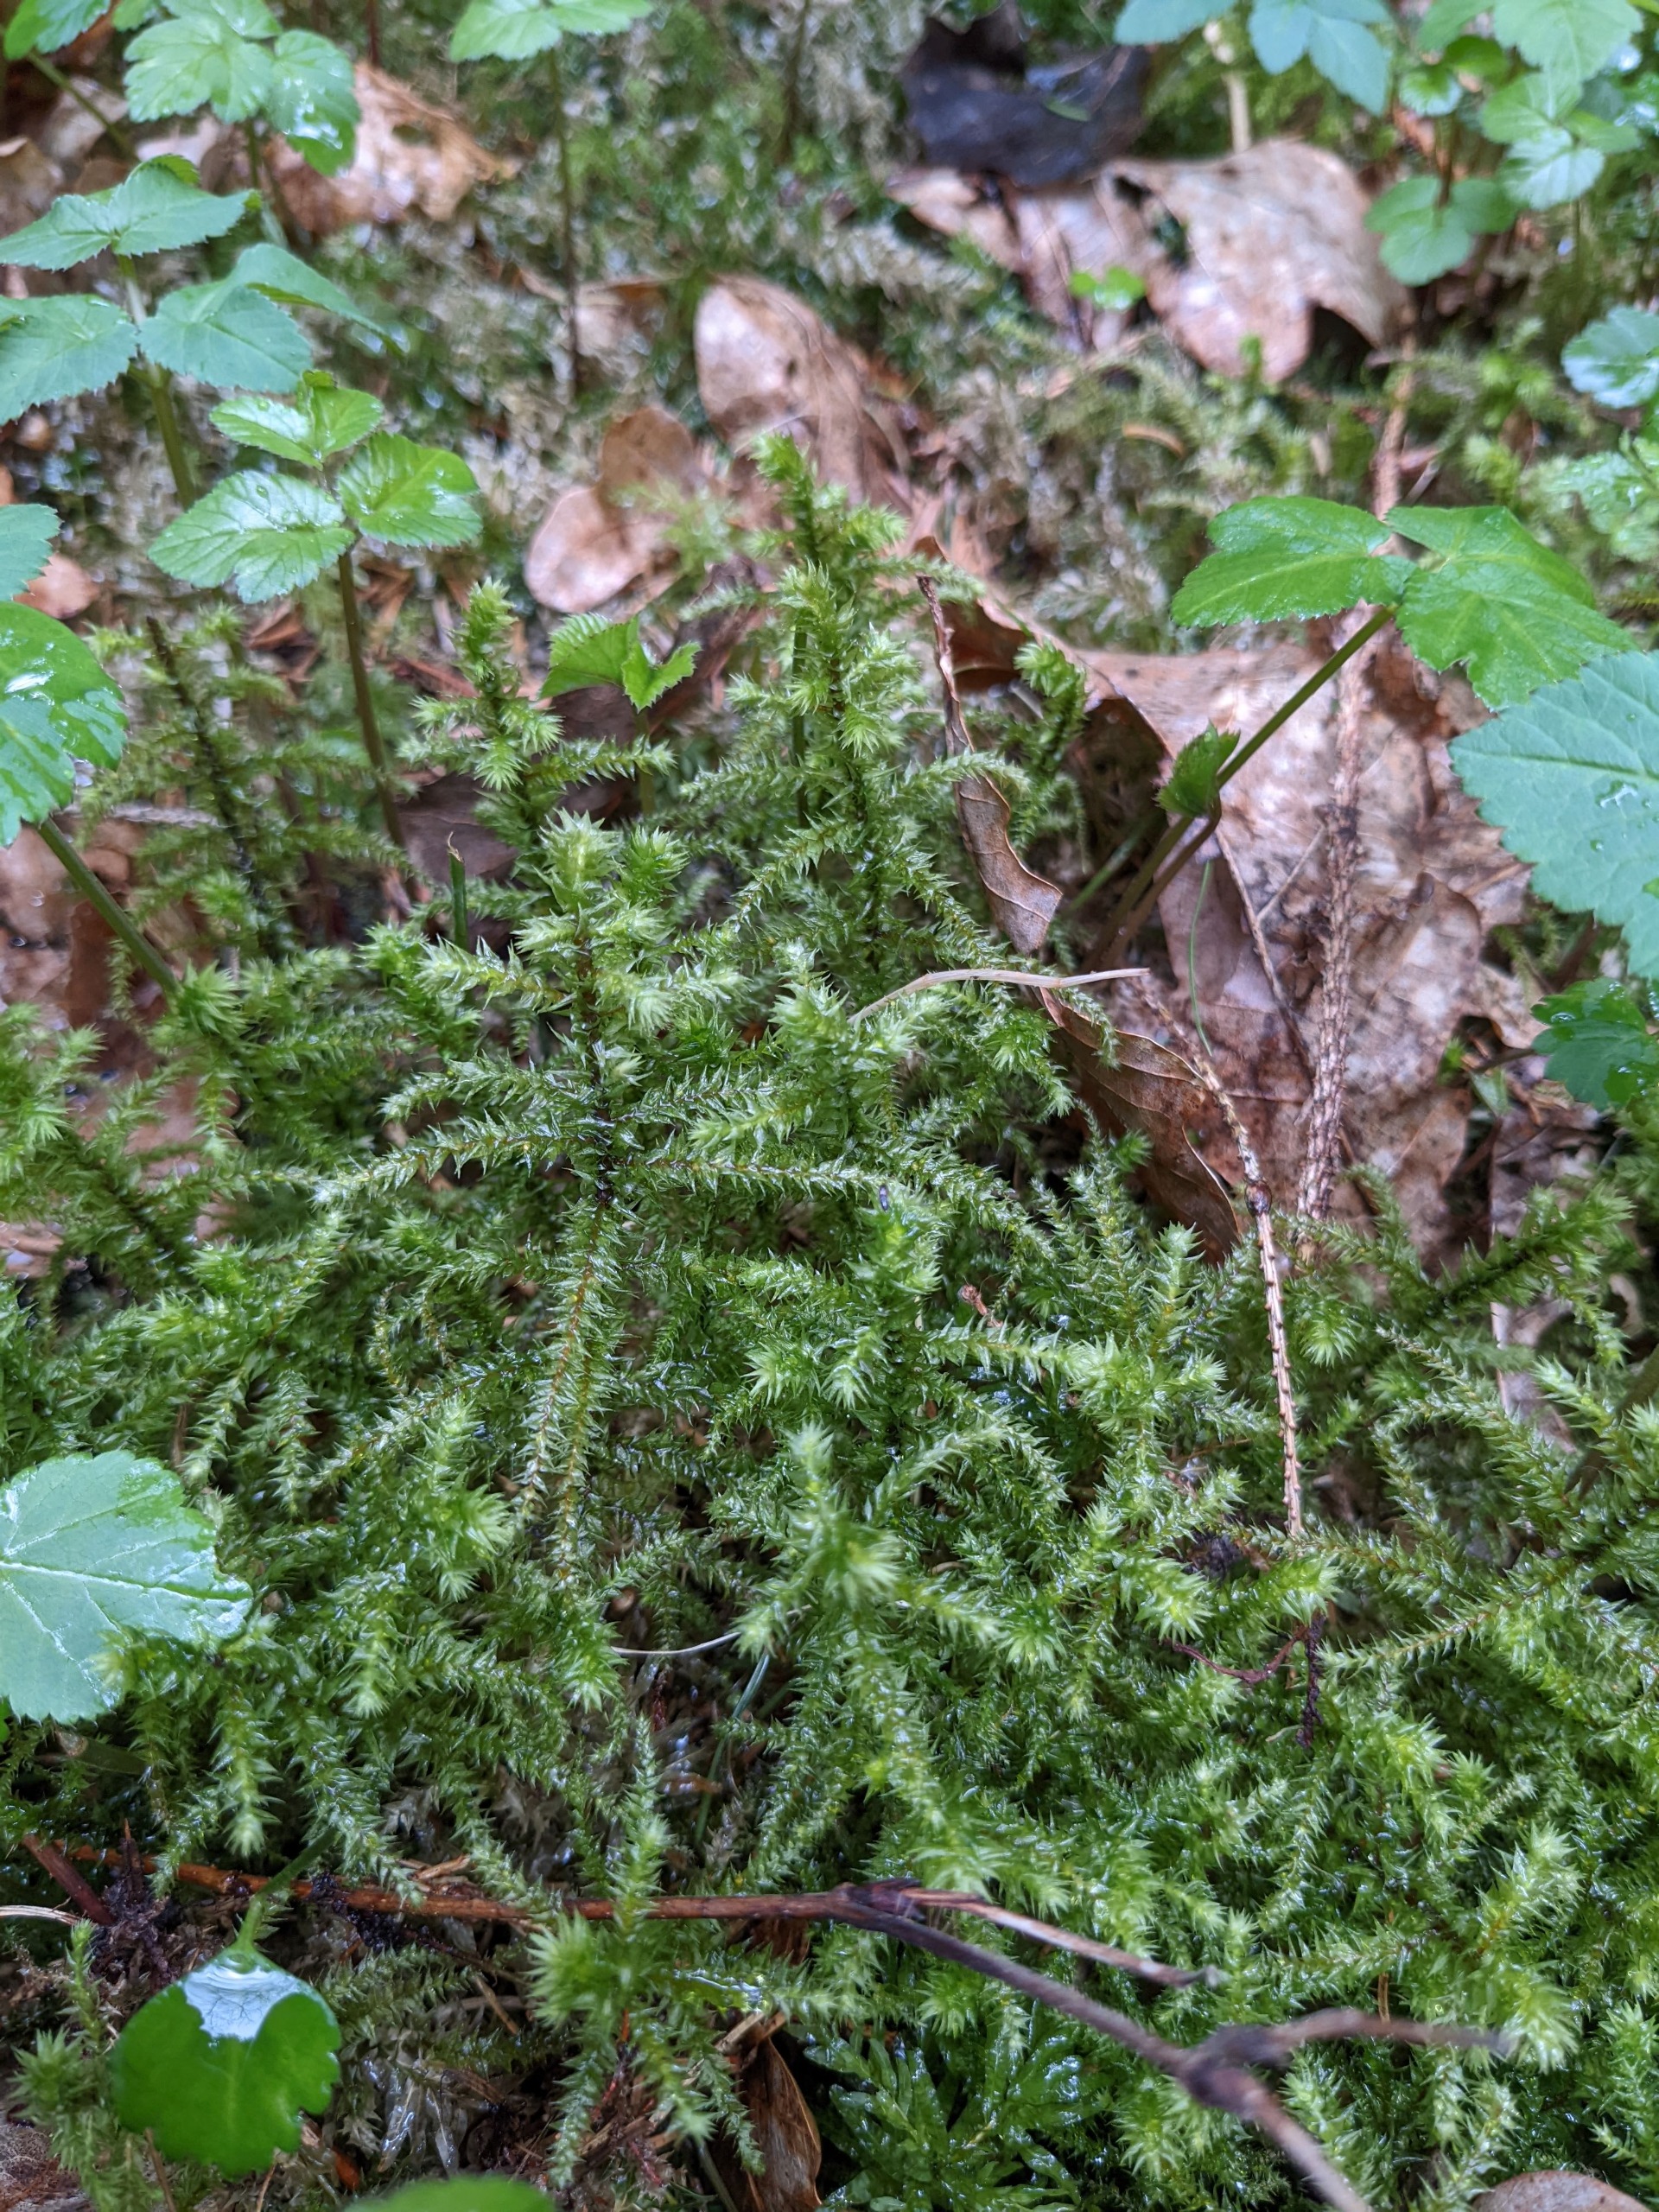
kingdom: Plantae
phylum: Bryophyta
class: Bryopsida
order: Hypnales
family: Hylocomiaceae
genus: Hylocomiadelphus
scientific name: Hylocomiadelphus triquetrus
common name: Stor kransemos
